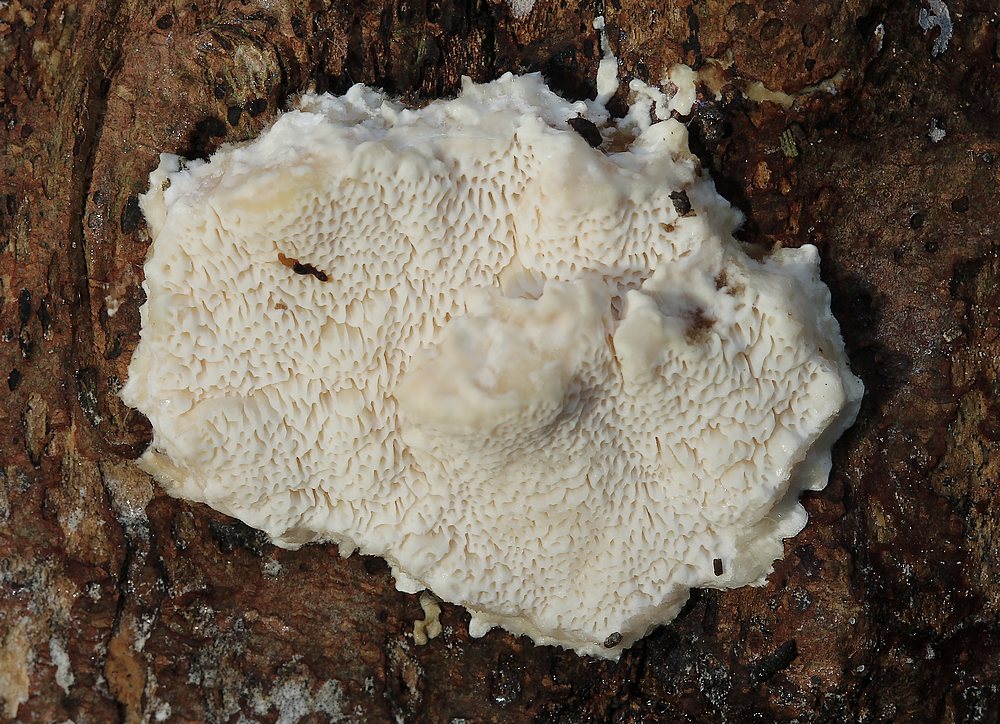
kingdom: Fungi
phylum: Basidiomycota
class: Agaricomycetes
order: Hymenochaetales
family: Schizoporaceae
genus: Schizopora
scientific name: Schizopora paradoxa
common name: hvid tandsvamp
